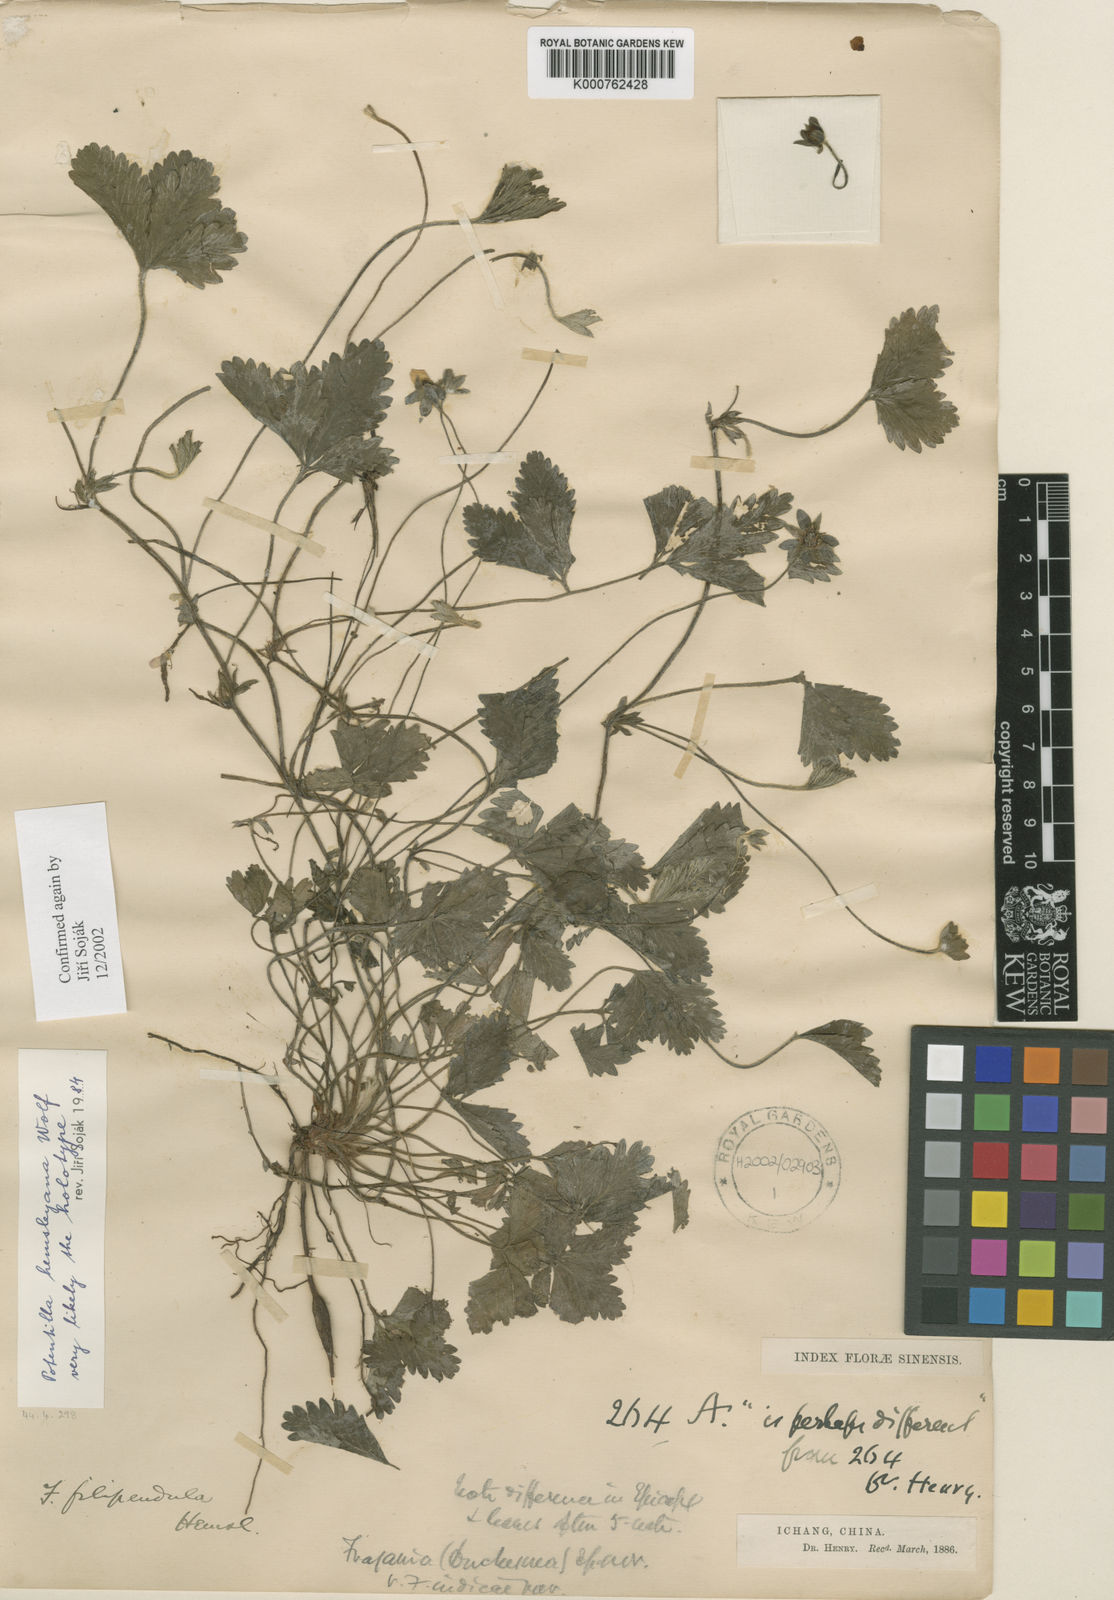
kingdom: Plantae
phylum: Tracheophyta
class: Magnoliopsida
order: Rosales
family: Rosaceae
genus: Potentilla
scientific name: Potentilla hemsleyana
